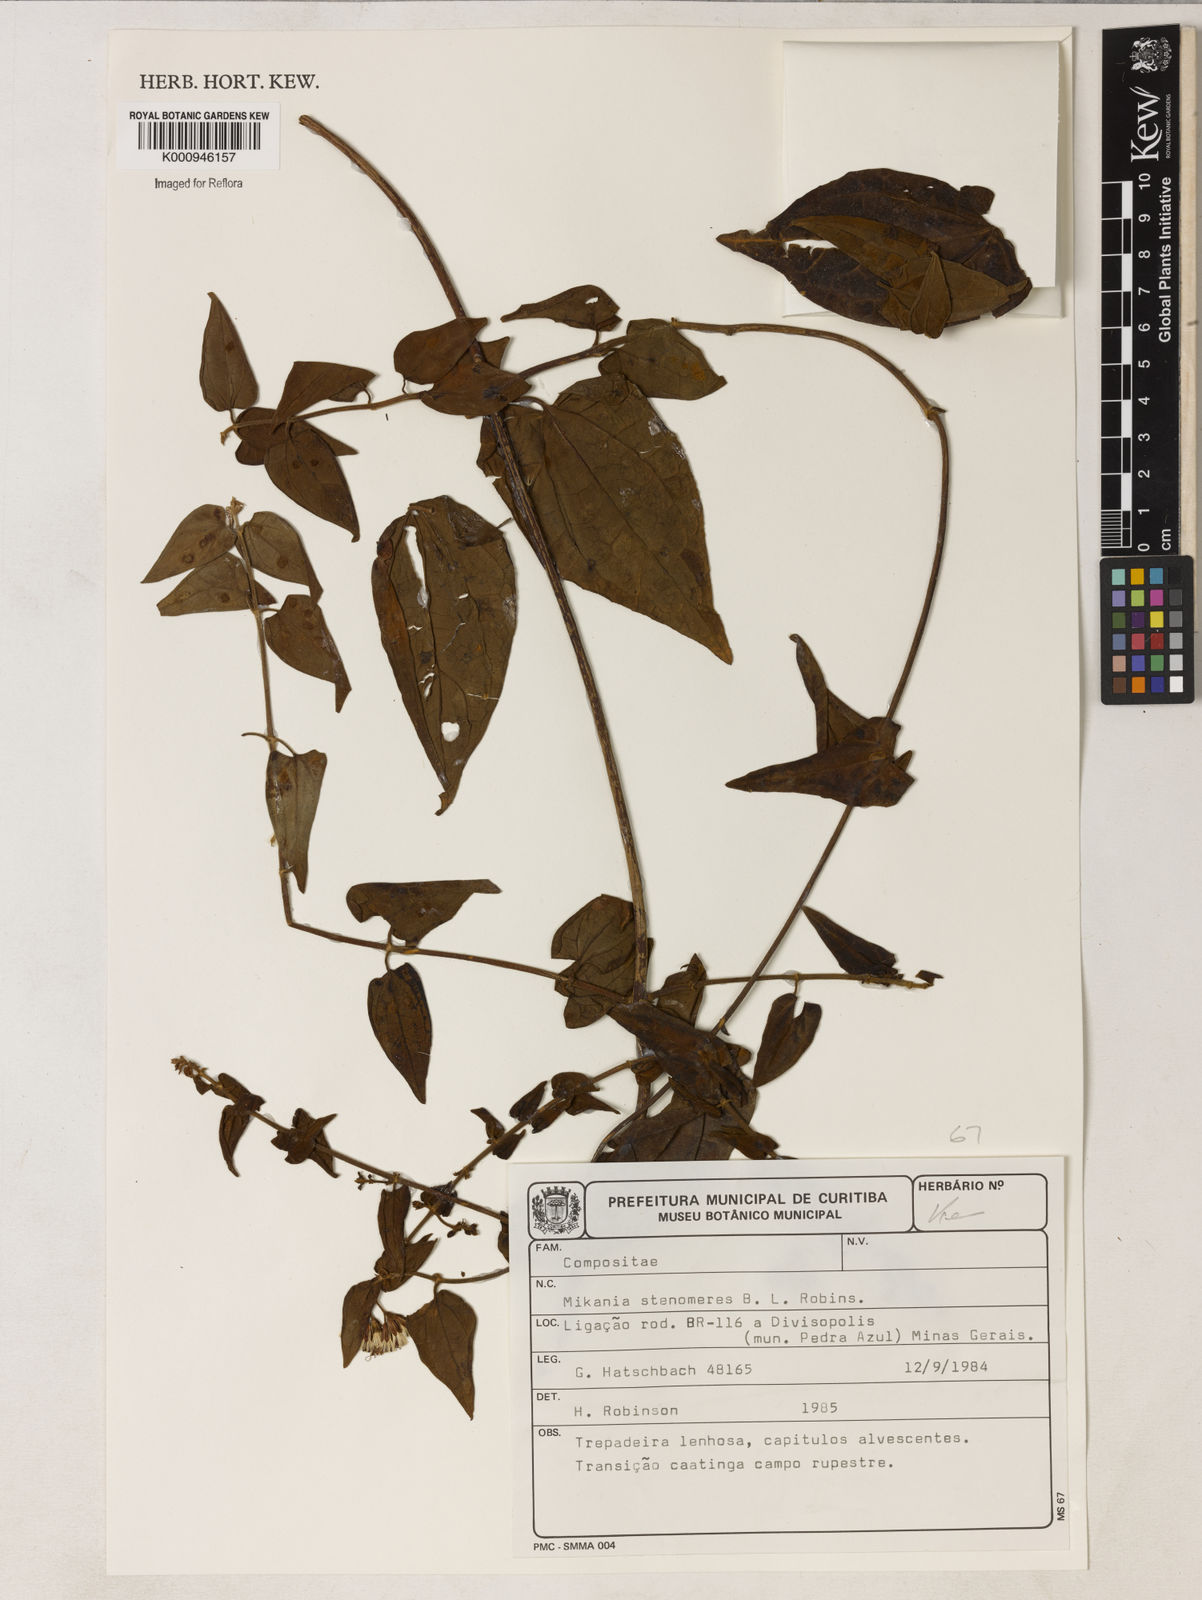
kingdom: Plantae
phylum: Tracheophyta
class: Magnoliopsida
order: Asterales
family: Asteraceae
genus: Mikania
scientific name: Mikania testudinaria
